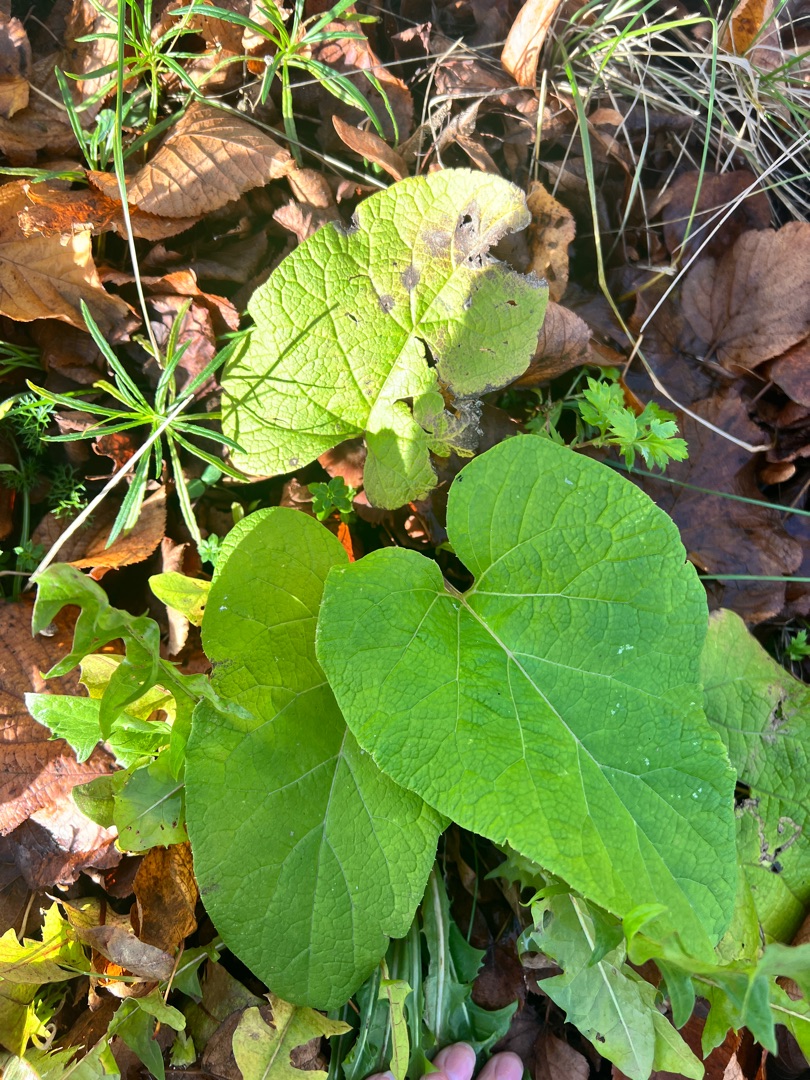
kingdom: Plantae
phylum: Tracheophyta
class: Magnoliopsida
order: Asterales
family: Asteraceae
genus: Arctium
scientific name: Arctium
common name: Burreslægten
